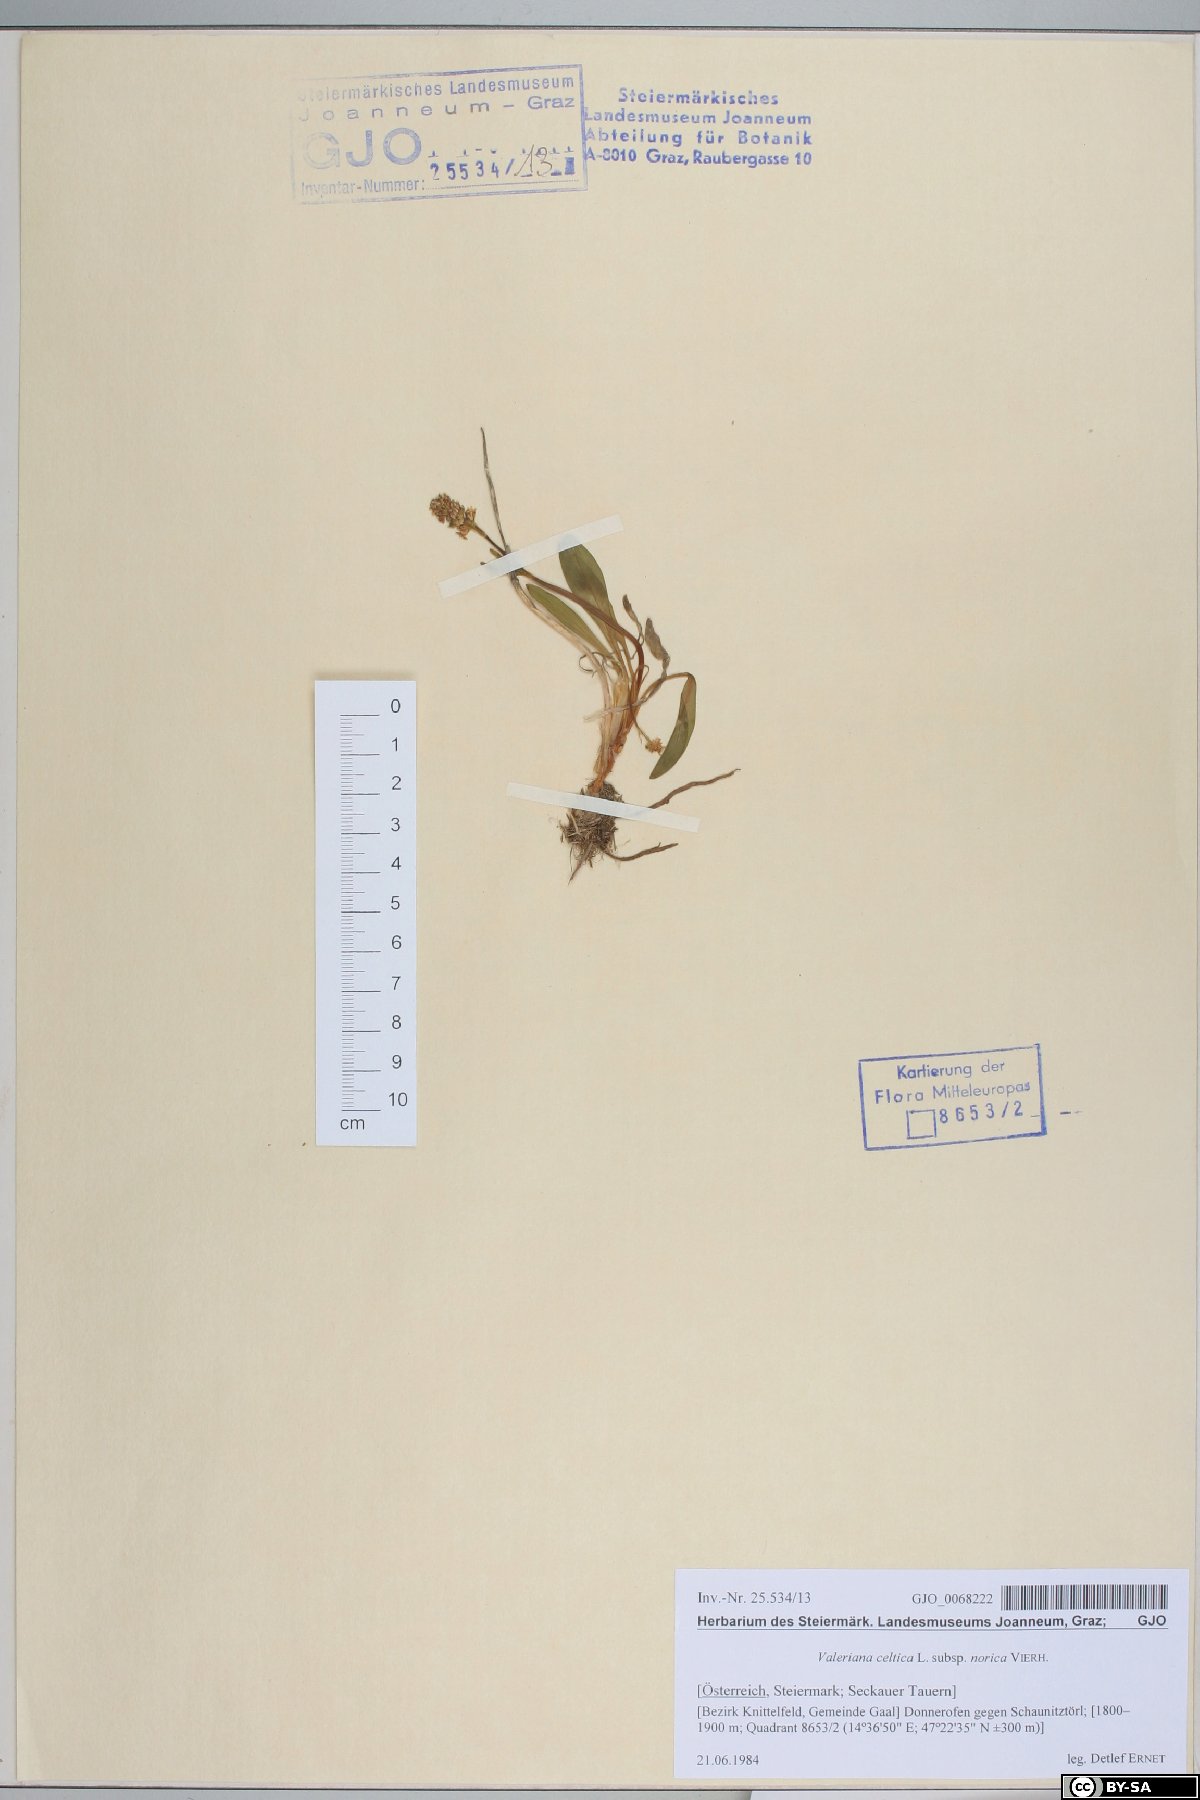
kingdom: Plantae
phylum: Tracheophyta
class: Magnoliopsida
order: Dipsacales
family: Caprifoliaceae
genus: Valeriana
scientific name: Valeriana celtica
